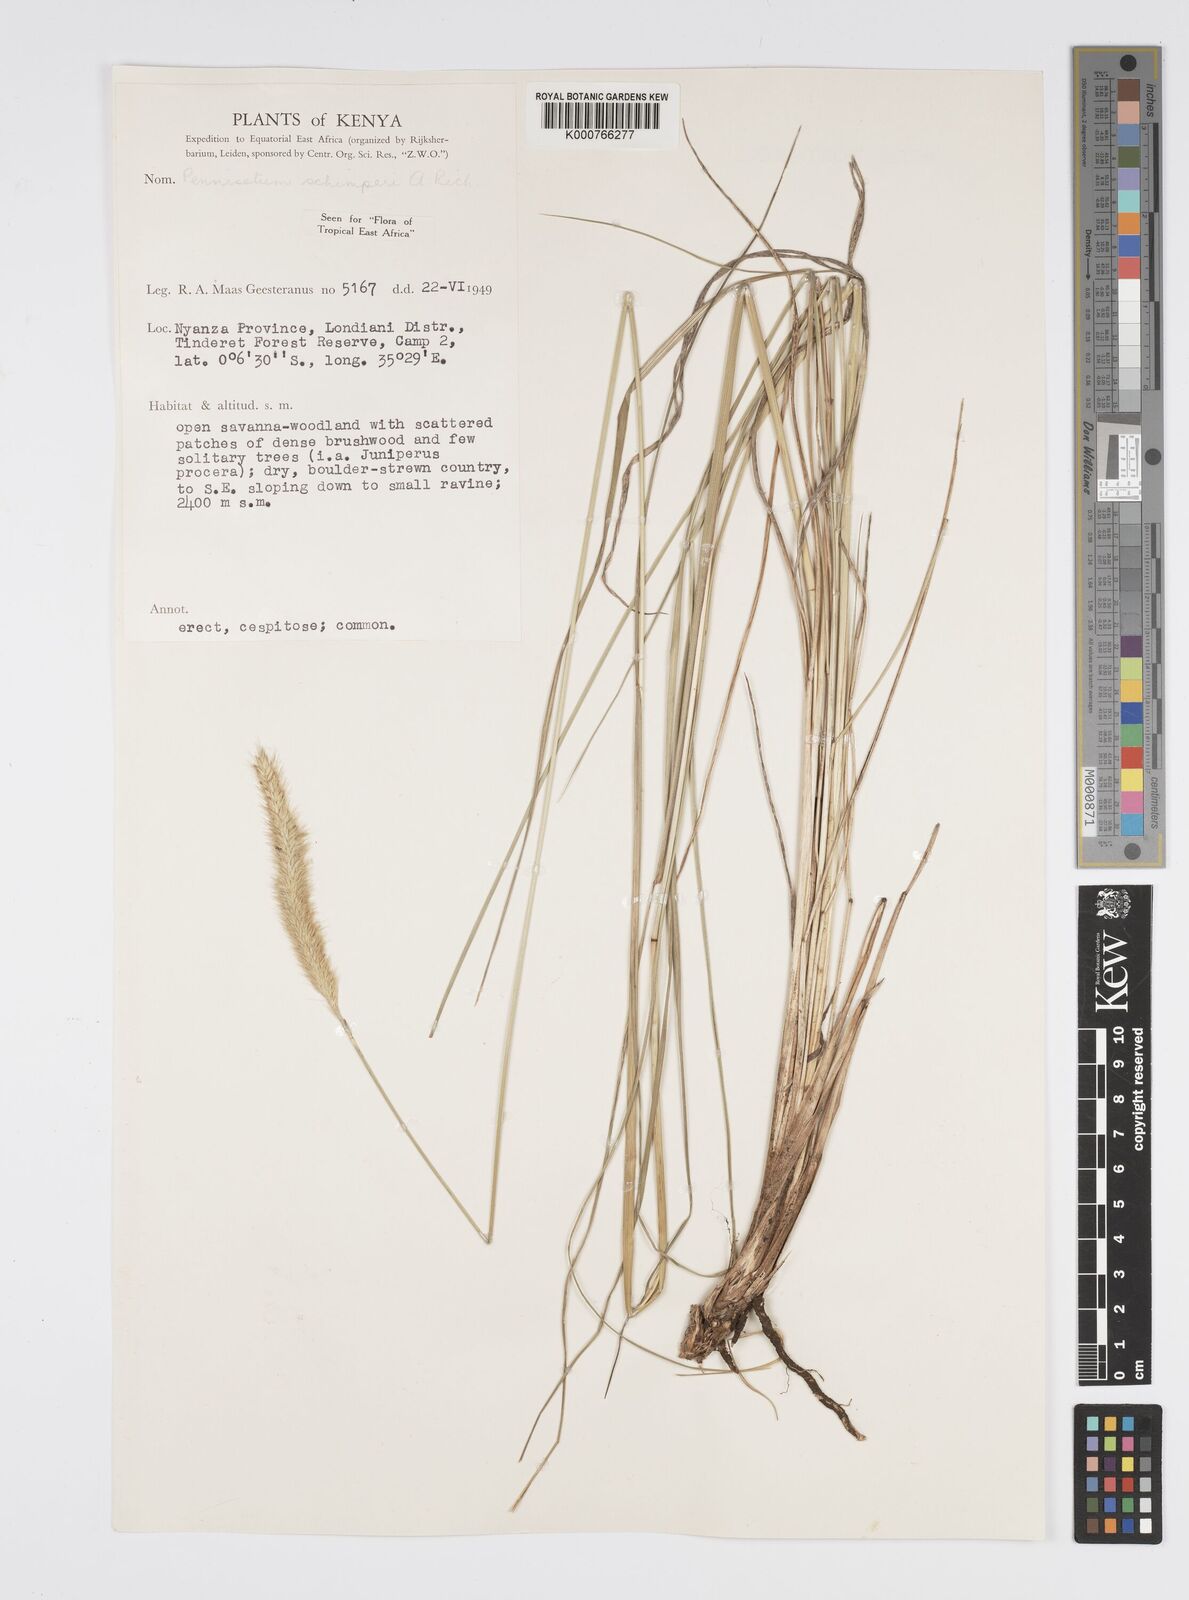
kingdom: Plantae
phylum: Tracheophyta
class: Liliopsida
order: Poales
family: Poaceae
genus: Cenchrus
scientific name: Cenchrus sphacelatus
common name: Bulgras
